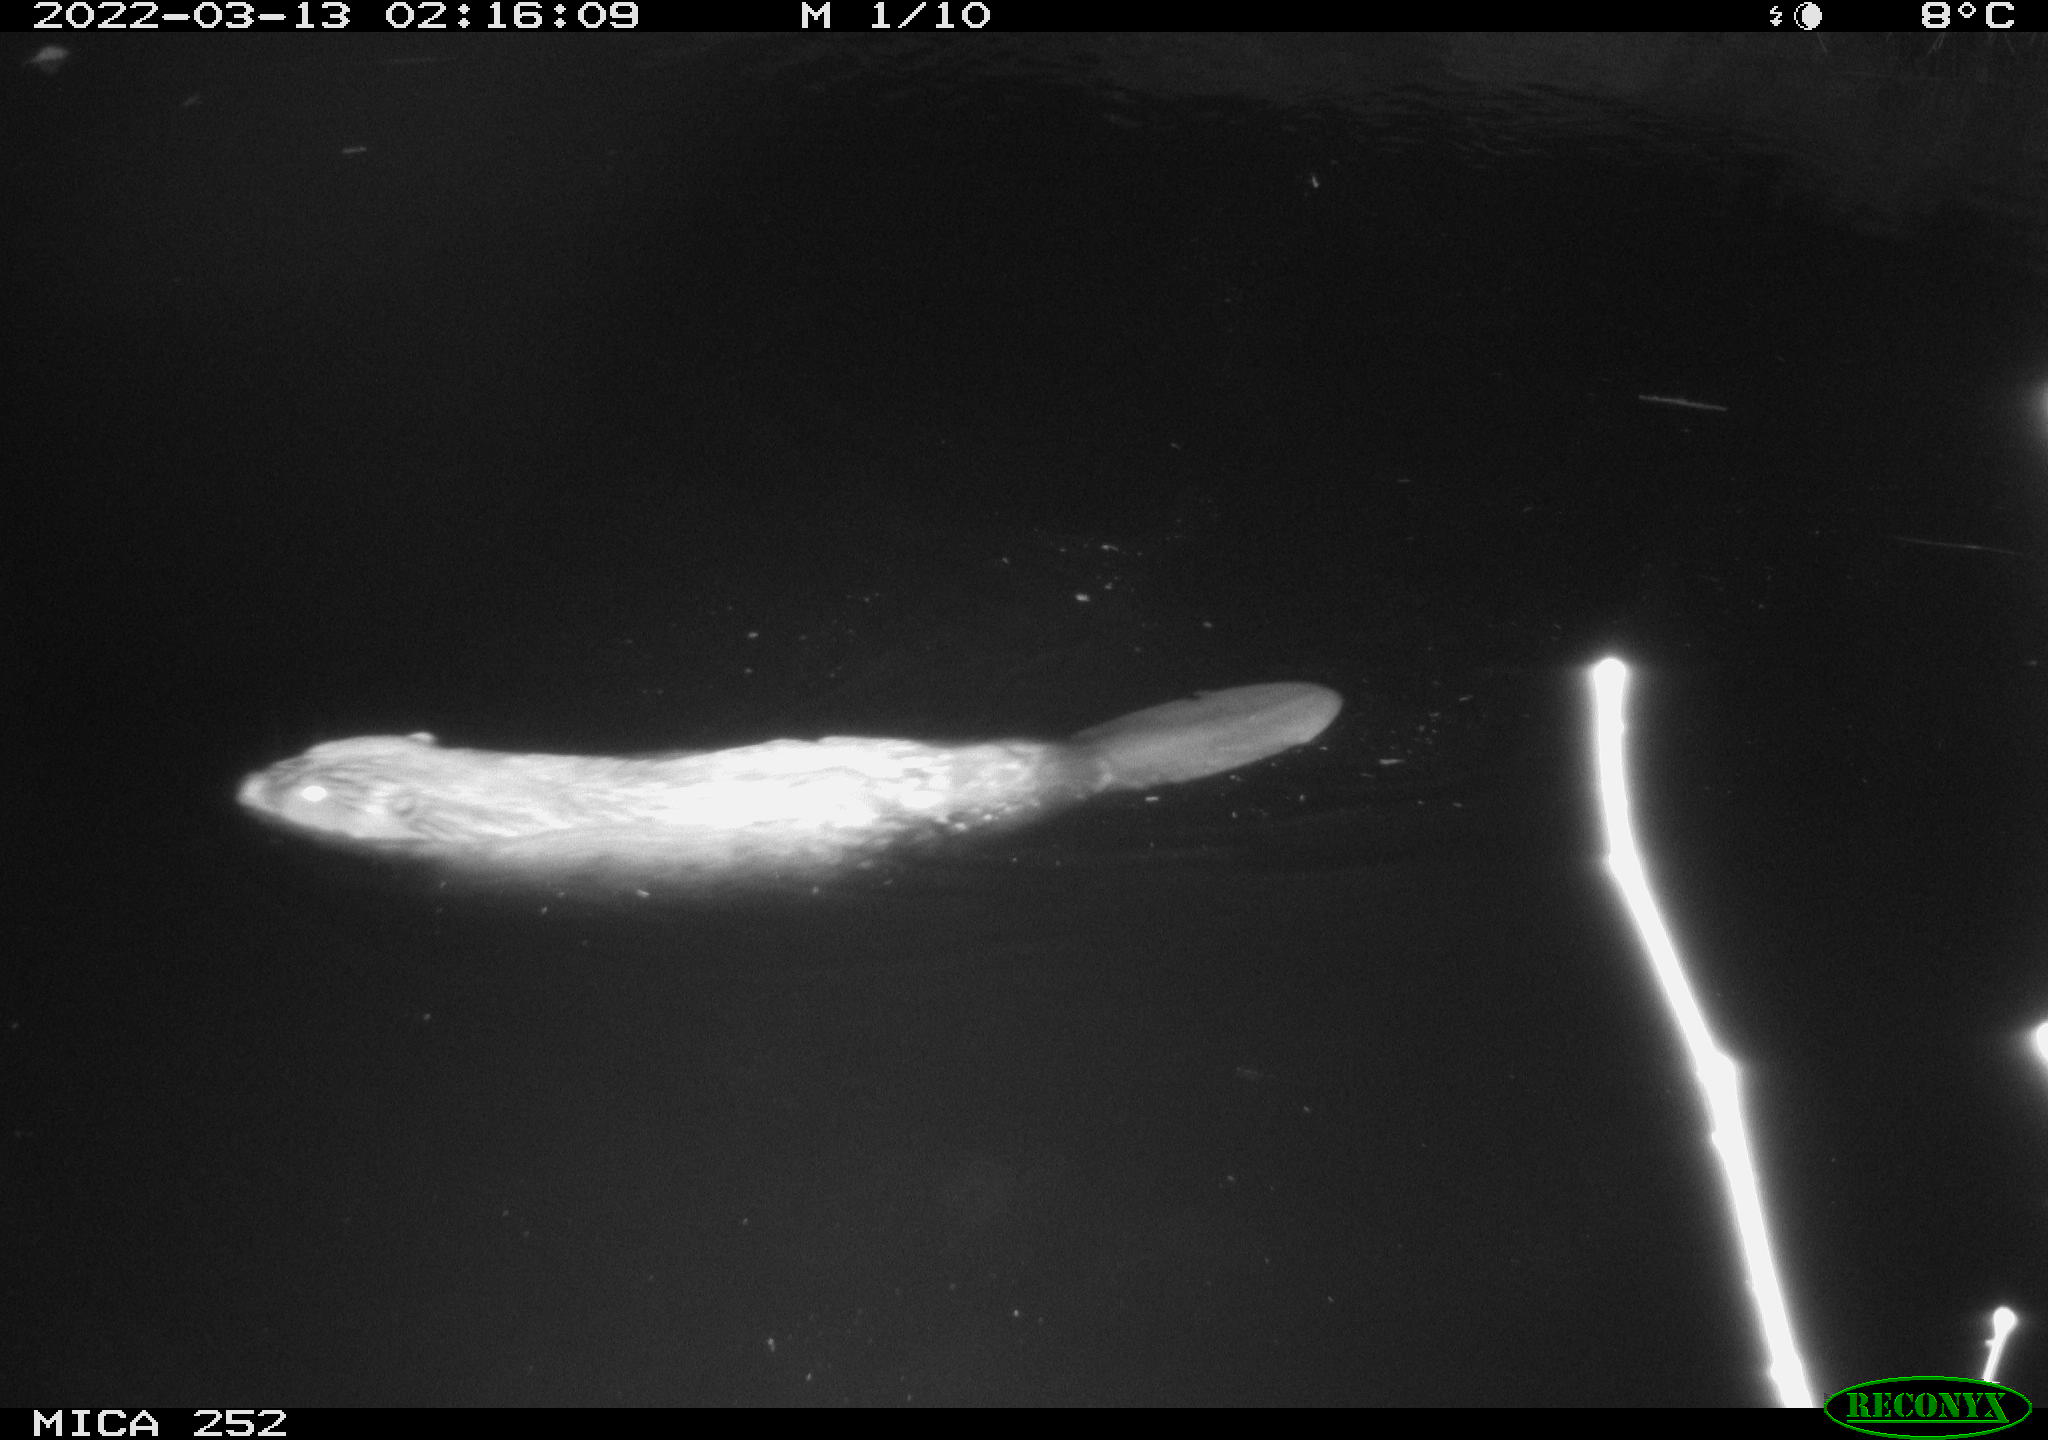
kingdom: Animalia
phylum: Chordata
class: Mammalia
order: Rodentia
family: Castoridae
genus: Castor
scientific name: Castor fiber
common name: Eurasian beaver
